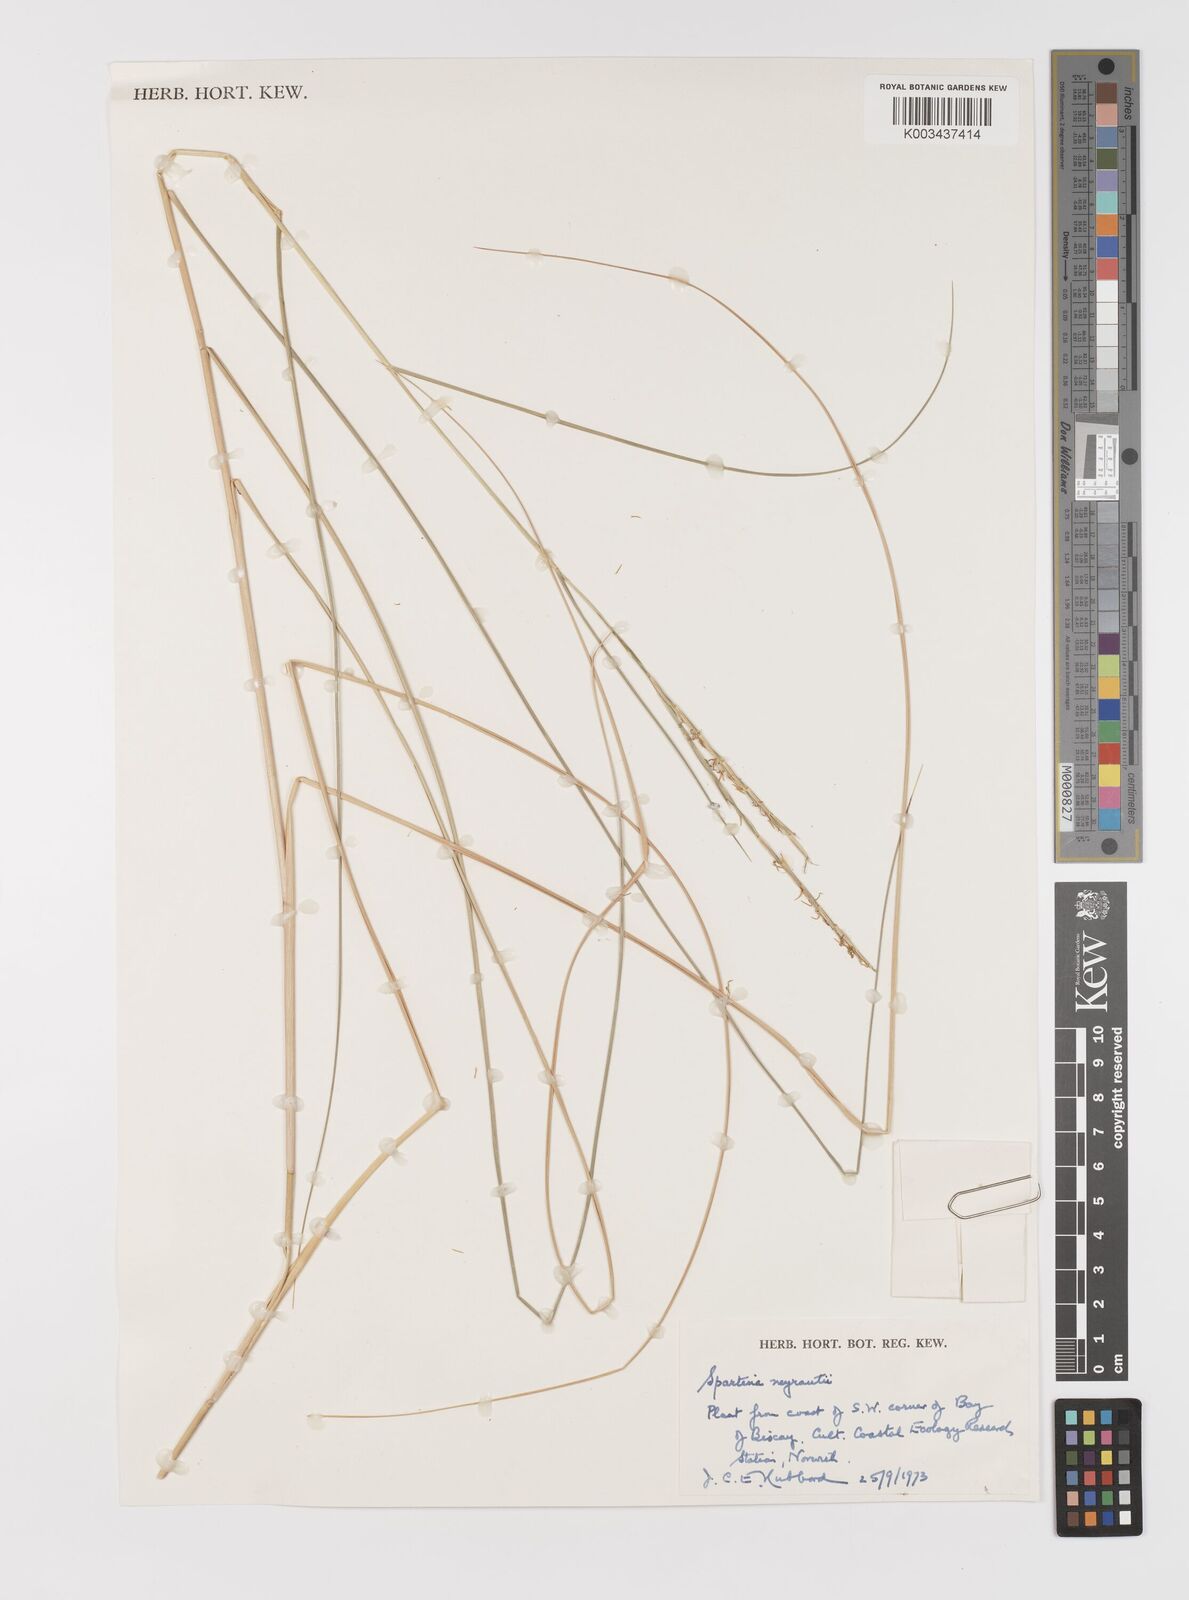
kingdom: Plantae
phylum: Tracheophyta
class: Liliopsida
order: Poales
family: Poaceae
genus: Sporobolus
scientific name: Sporobolus townsendii
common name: Townsend's cordgrass
